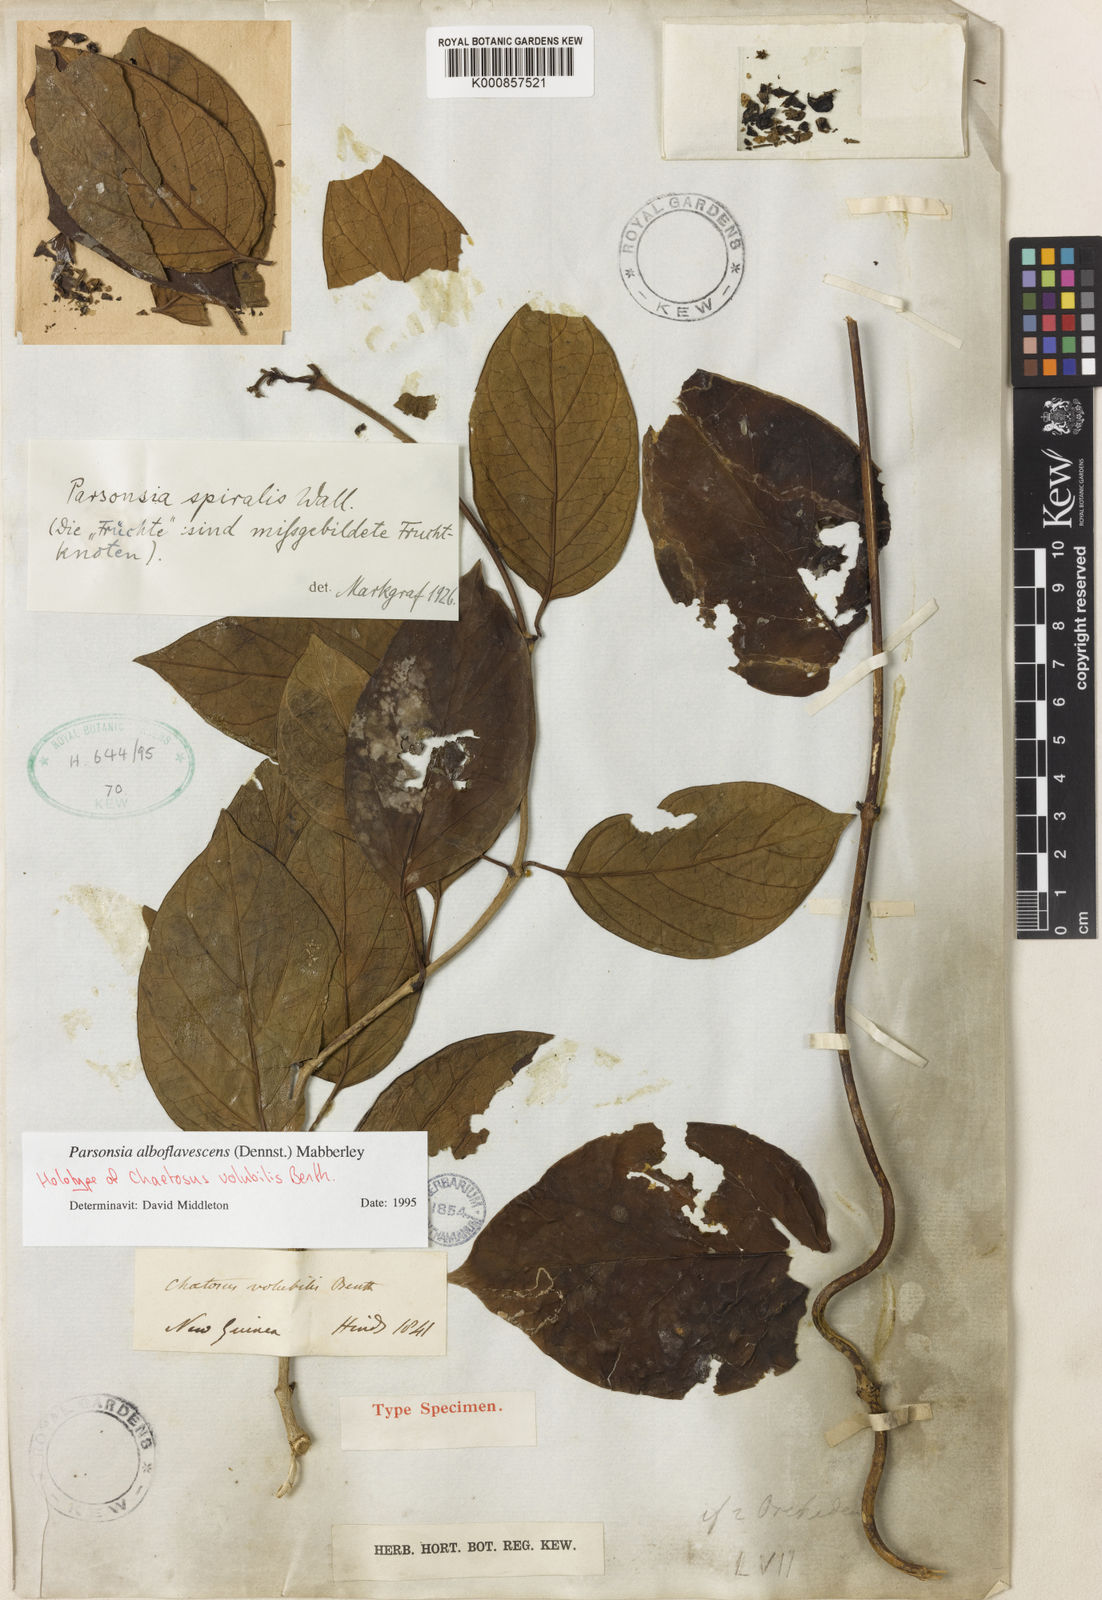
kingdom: Plantae
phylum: Tracheophyta
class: Magnoliopsida
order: Gentianales
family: Apocynaceae
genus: Parsonsia
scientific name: Parsonsia alboflavescens
